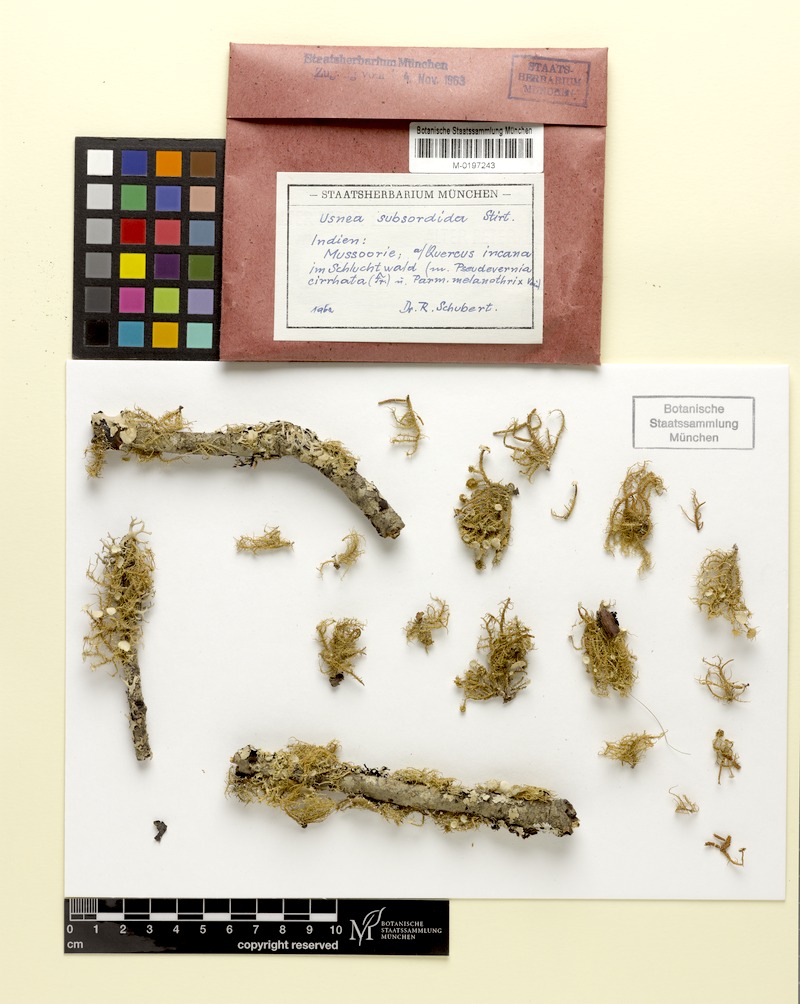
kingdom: Fungi
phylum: Ascomycota
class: Lecanoromycetes
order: Lecanorales
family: Parmeliaceae
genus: Usnea
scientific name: Usnea subsordida
